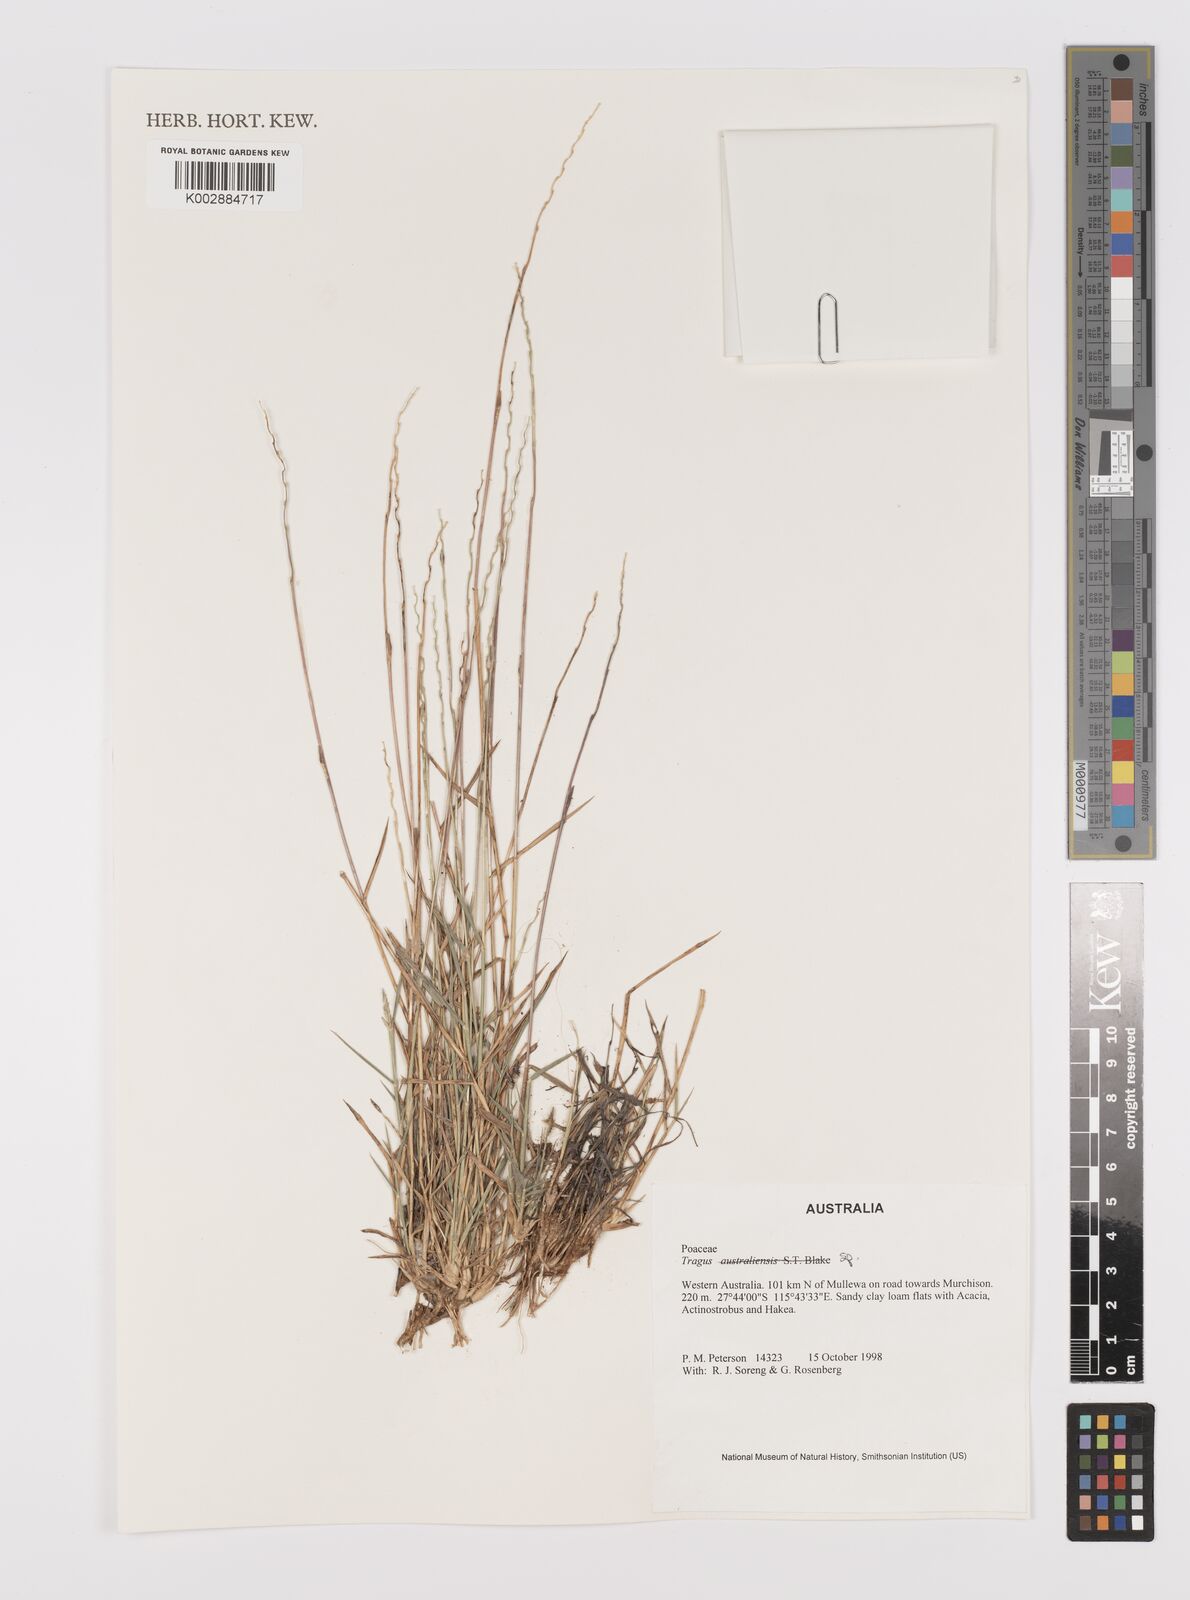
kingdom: Plantae
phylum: Tracheophyta
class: Liliopsida
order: Poales
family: Poaceae
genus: Tragus
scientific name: Tragus australianus
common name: Australian bur-grass
